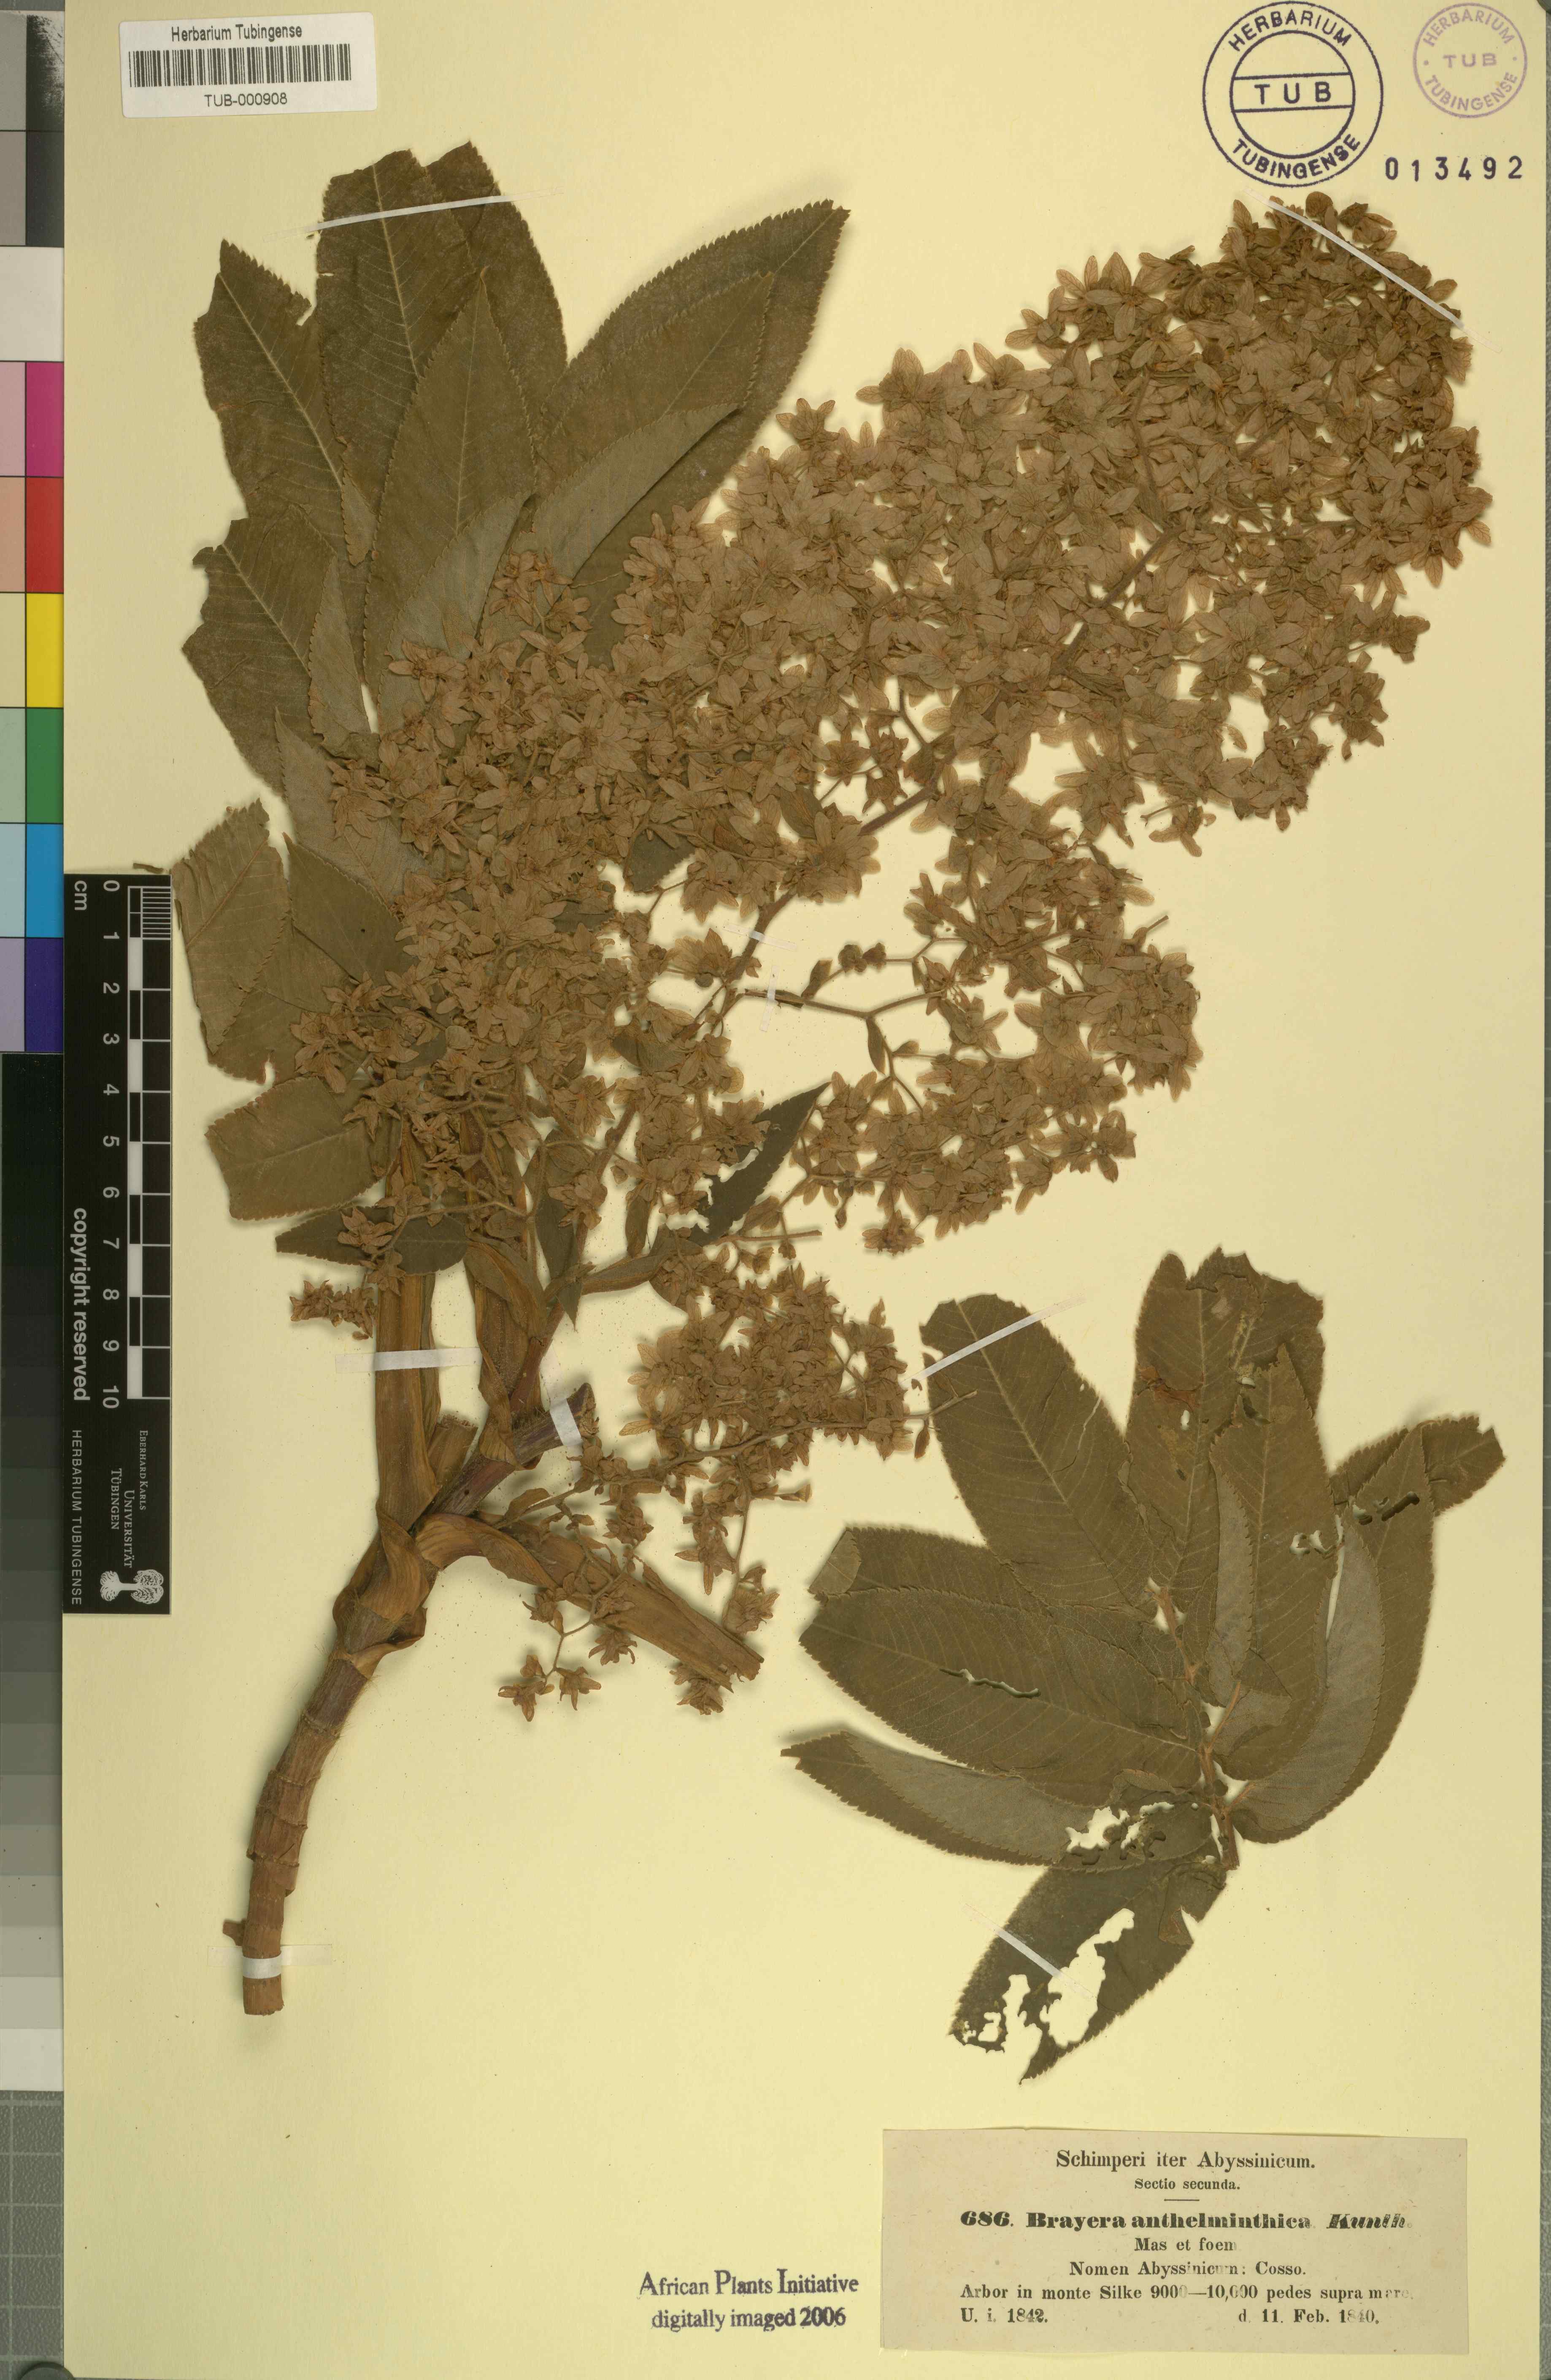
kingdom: Plantae
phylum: Tracheophyta
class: Magnoliopsida
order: Rosales
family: Rosaceae
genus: Hagenia
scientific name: Hagenia abyssinica
